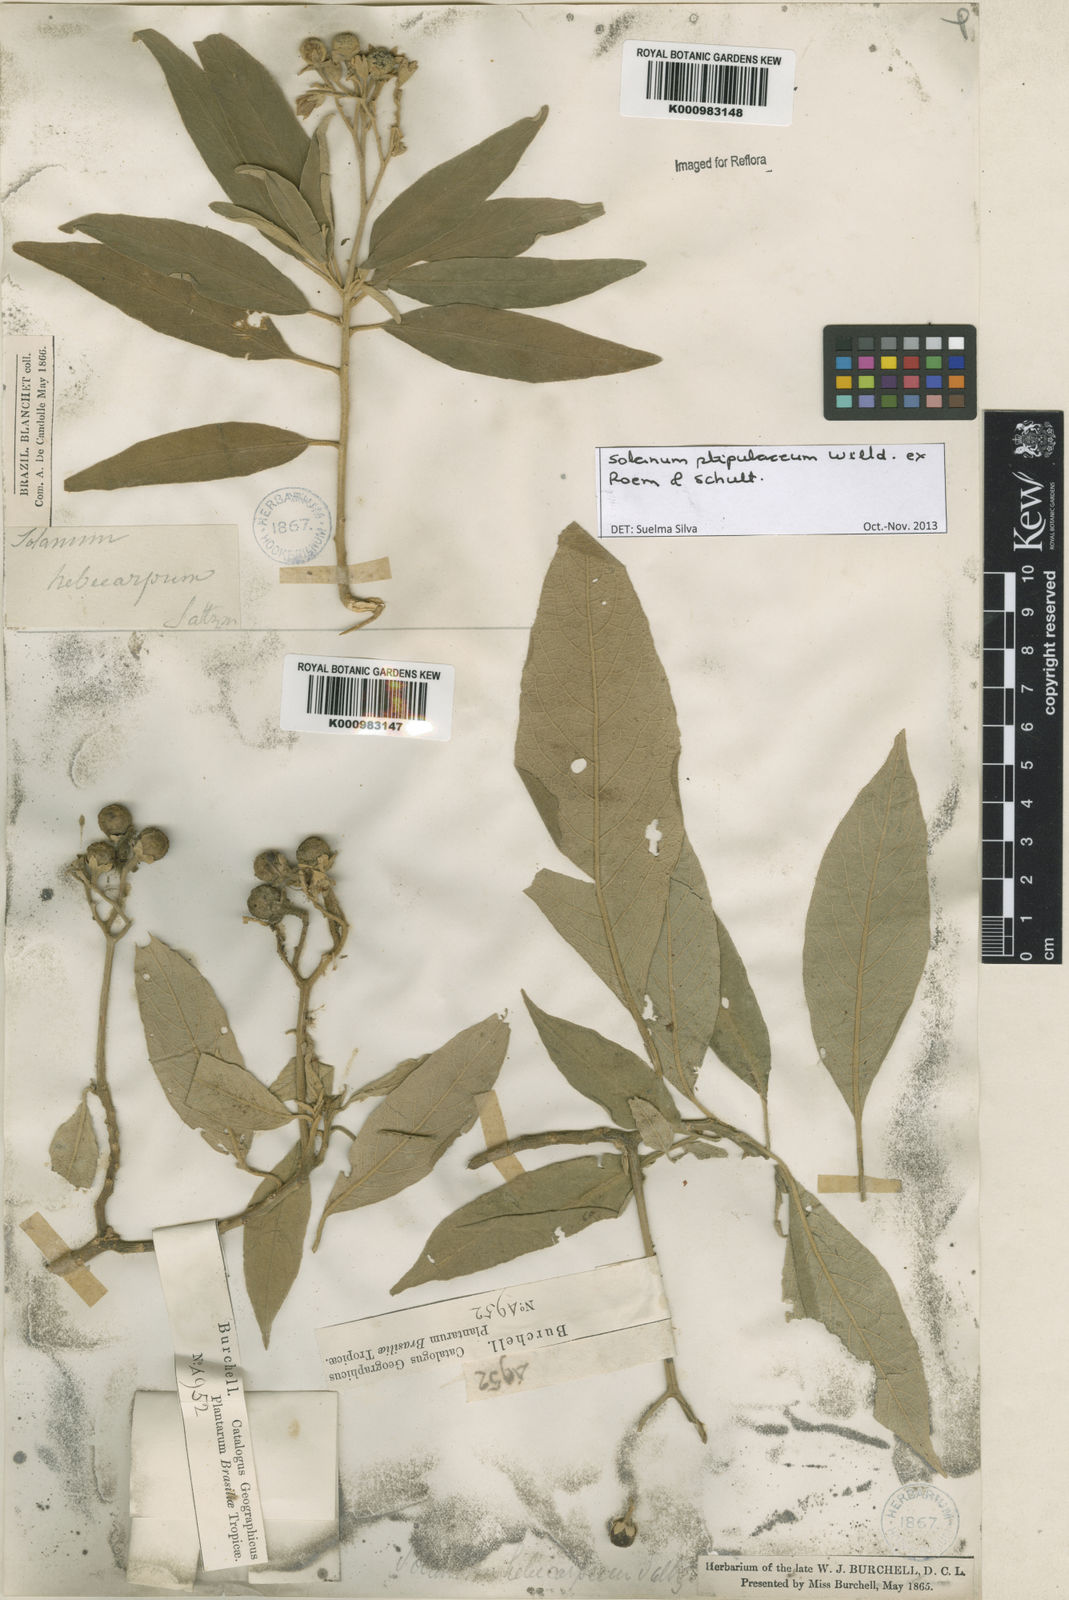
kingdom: Plantae
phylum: Tracheophyta
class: Magnoliopsida
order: Solanales
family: Solanaceae
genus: Solanum
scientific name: Solanum stipulaceum
